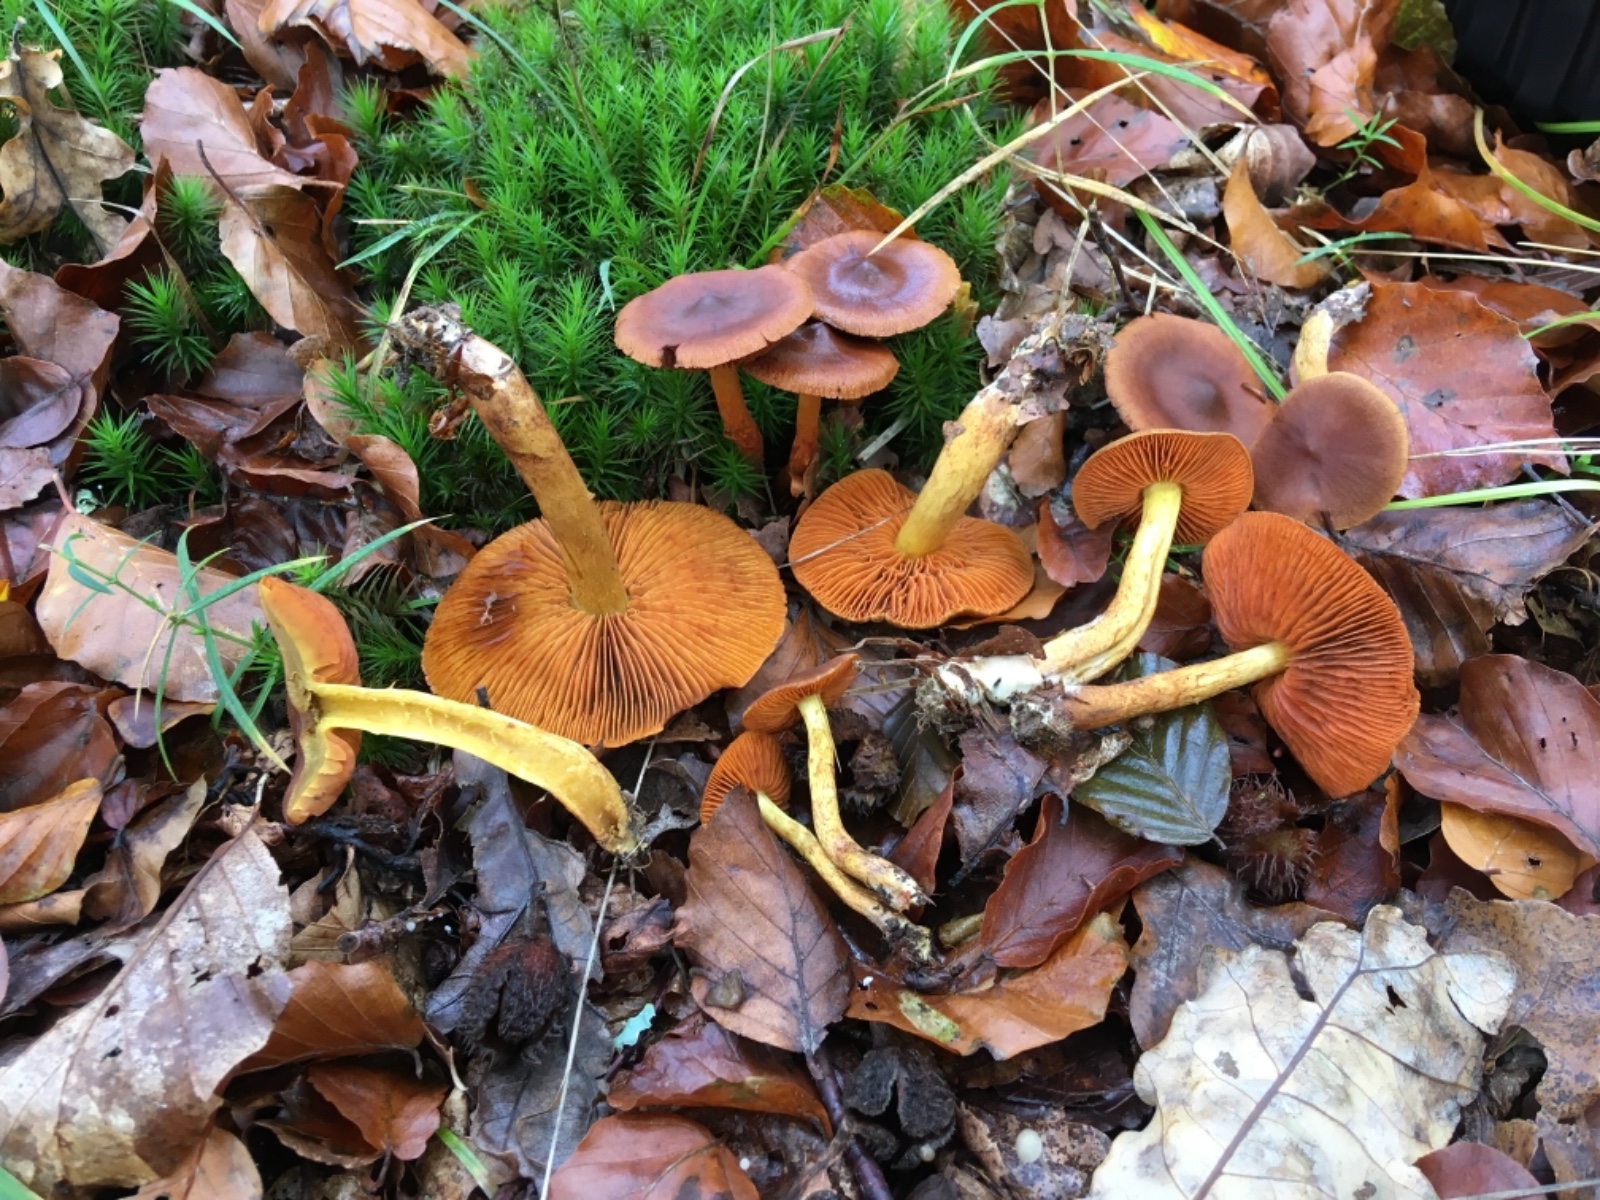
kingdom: Fungi
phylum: Basidiomycota
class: Agaricomycetes
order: Agaricales
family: Cortinariaceae
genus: Cortinarius
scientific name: Cortinarius malicorius
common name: grønkødet slørhat
